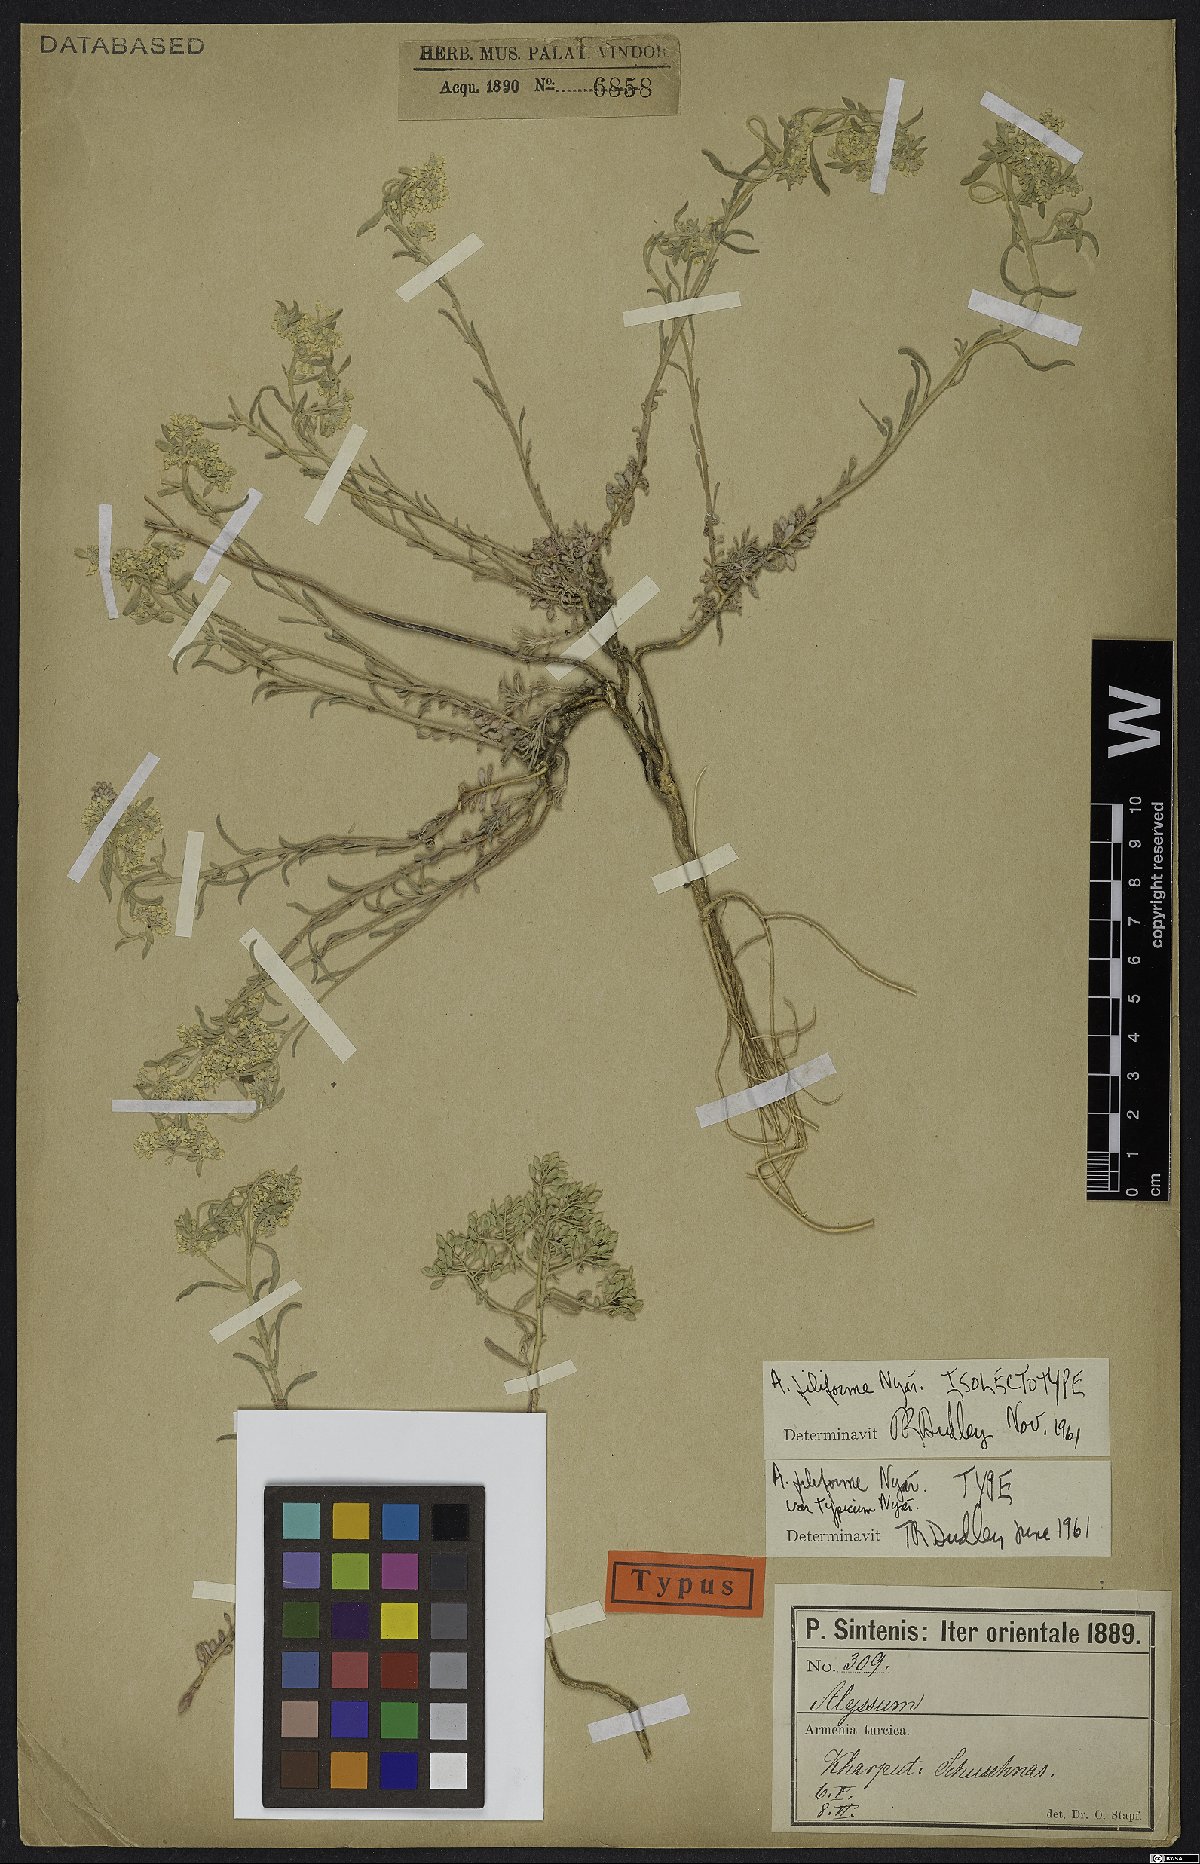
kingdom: Plantae
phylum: Tracheophyta
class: Magnoliopsida
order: Brassicales
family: Brassicaceae
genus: Odontarrhena
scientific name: Odontarrhena filiformis
